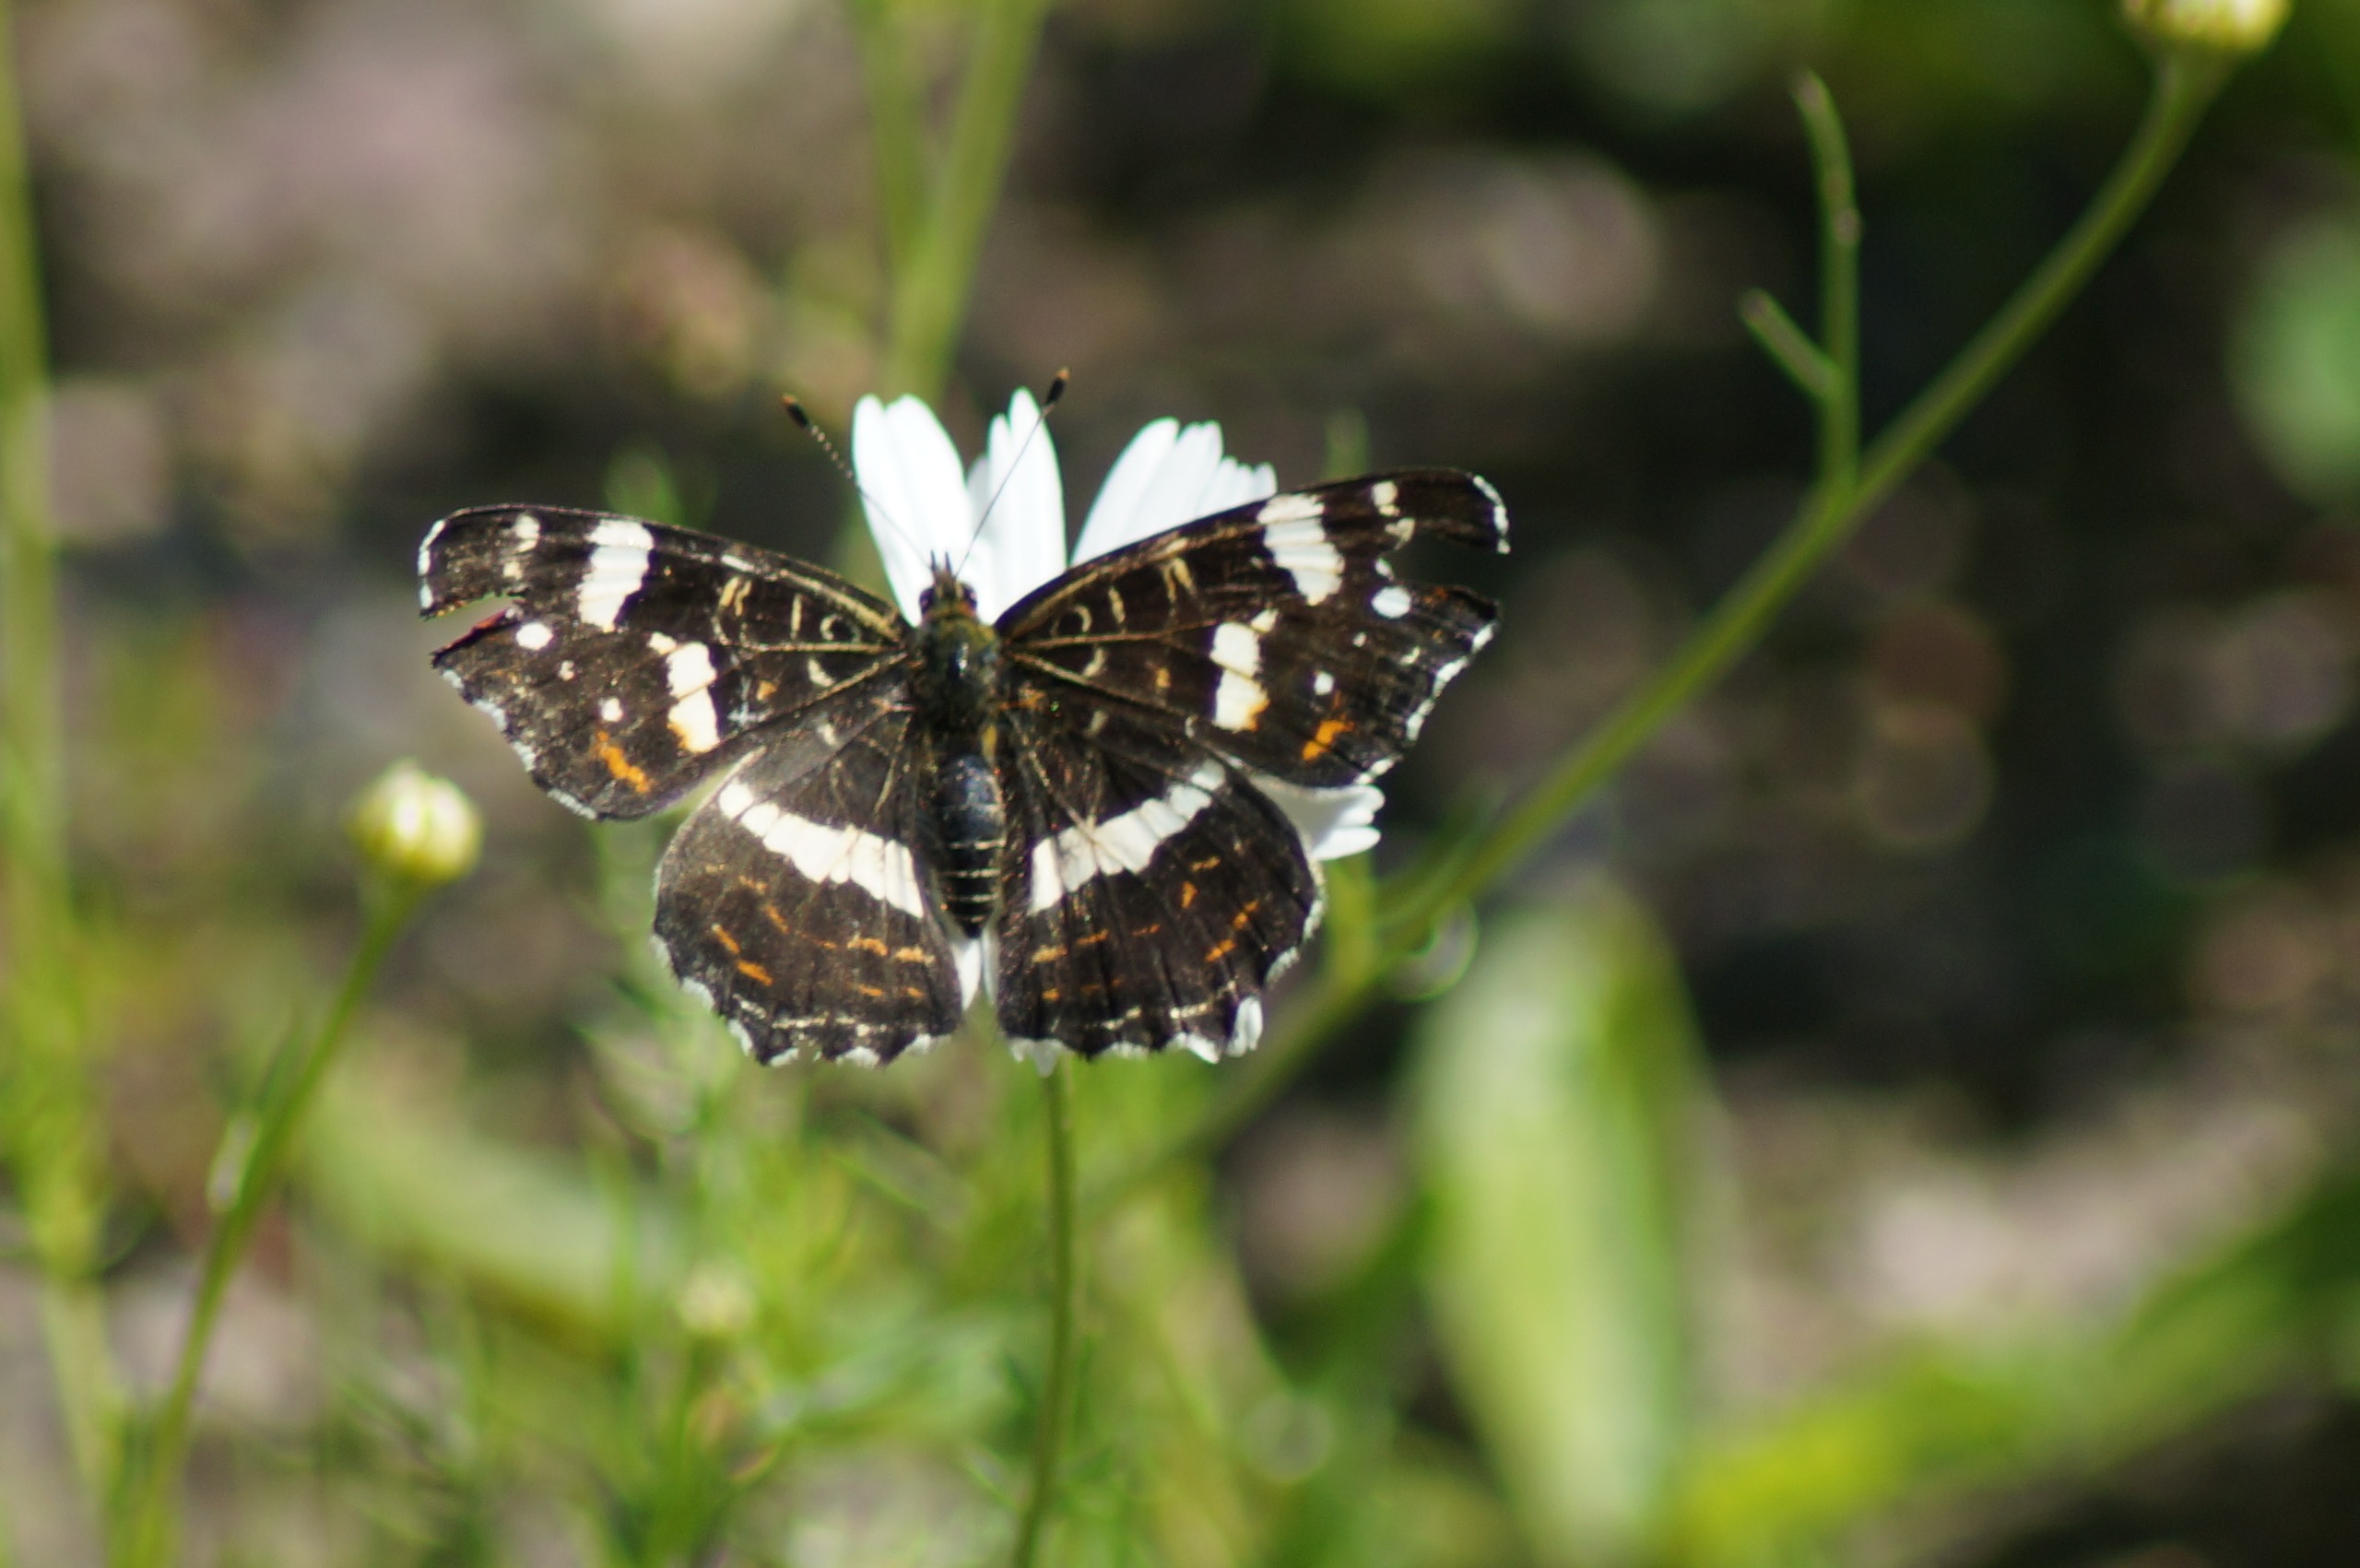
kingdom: Animalia
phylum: Arthropoda
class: Insecta
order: Lepidoptera
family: Nymphalidae
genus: Araschnia
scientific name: Araschnia levana
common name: Nældesommerfugl
